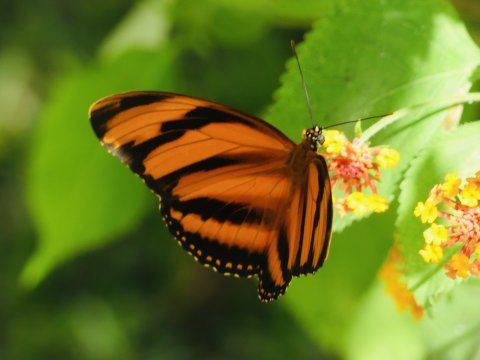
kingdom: Animalia
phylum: Arthropoda
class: Insecta
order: Lepidoptera
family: Nymphalidae
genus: Dryadula
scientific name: Dryadula phaetusa
